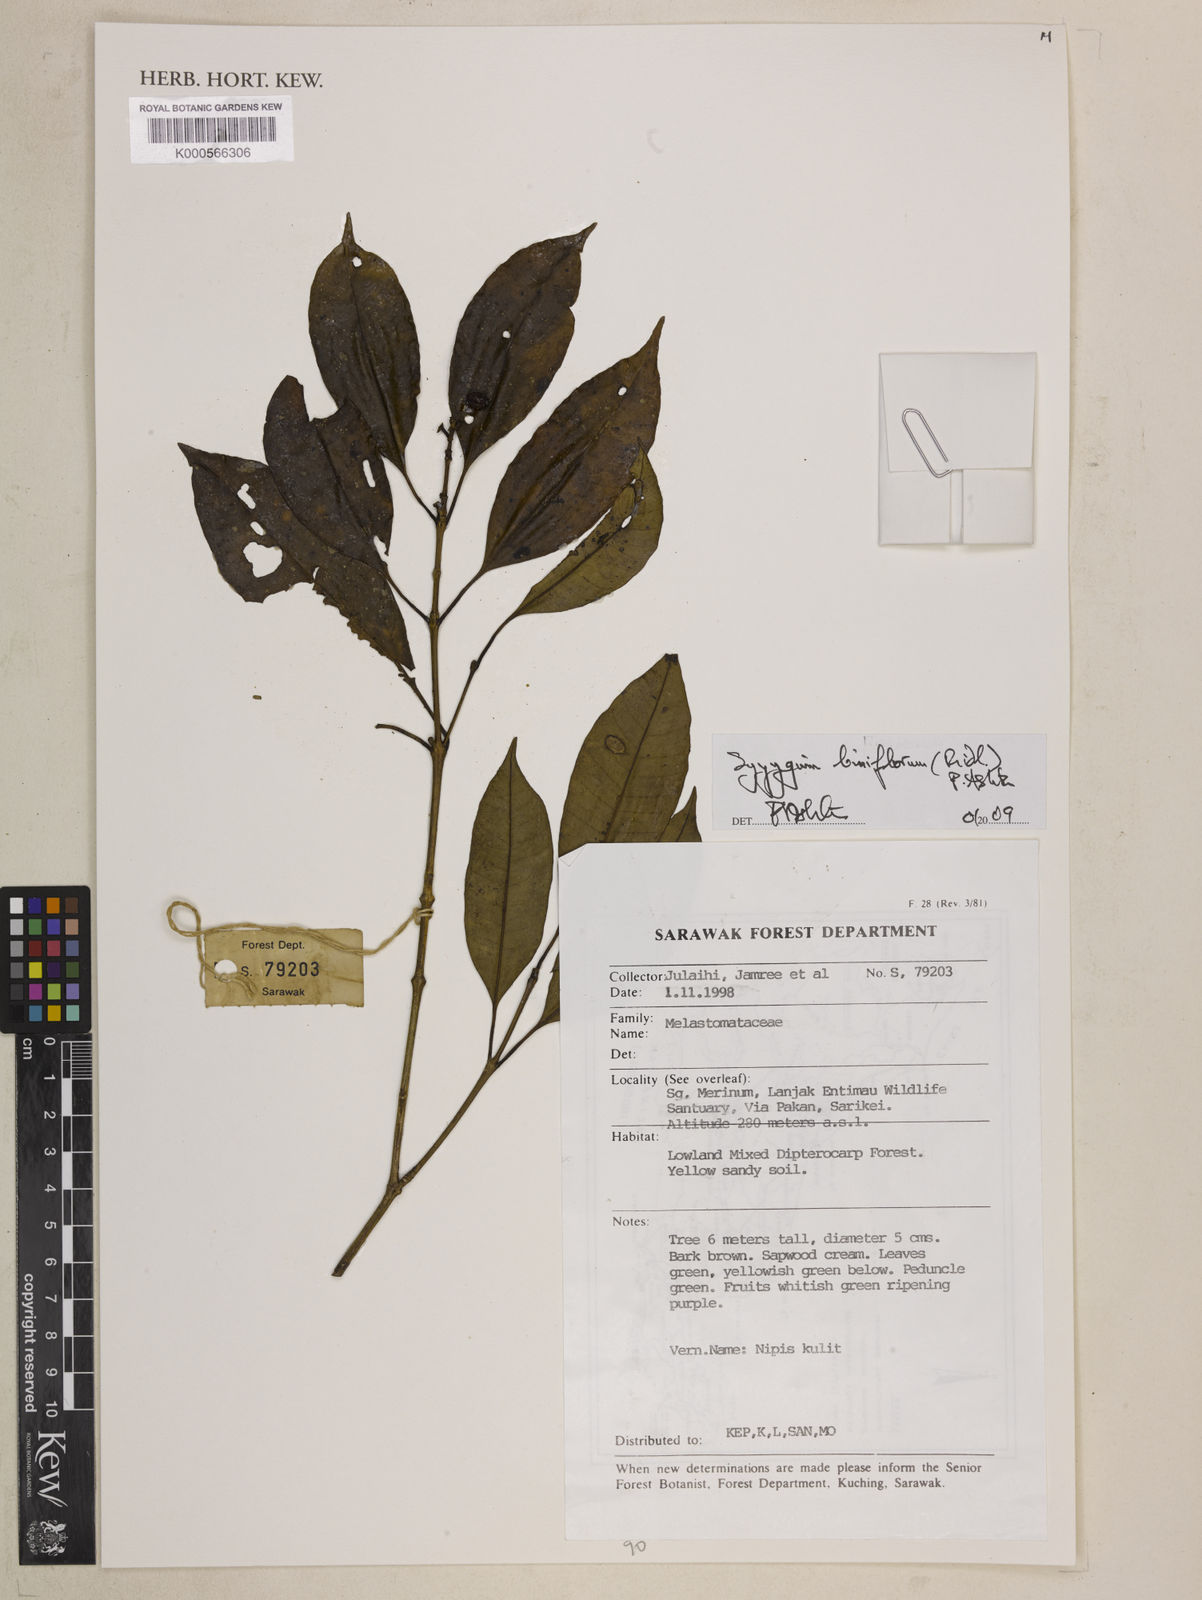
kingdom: Plantae
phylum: Tracheophyta
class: Magnoliopsida
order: Myrtales
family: Myrtaceae
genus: Syzygium
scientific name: Syzygium
